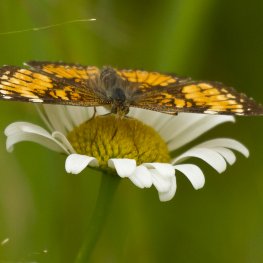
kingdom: Animalia
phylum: Arthropoda
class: Insecta
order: Lepidoptera
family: Nymphalidae
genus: Phyciodes
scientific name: Phyciodes tharos
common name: Northern Crescent
